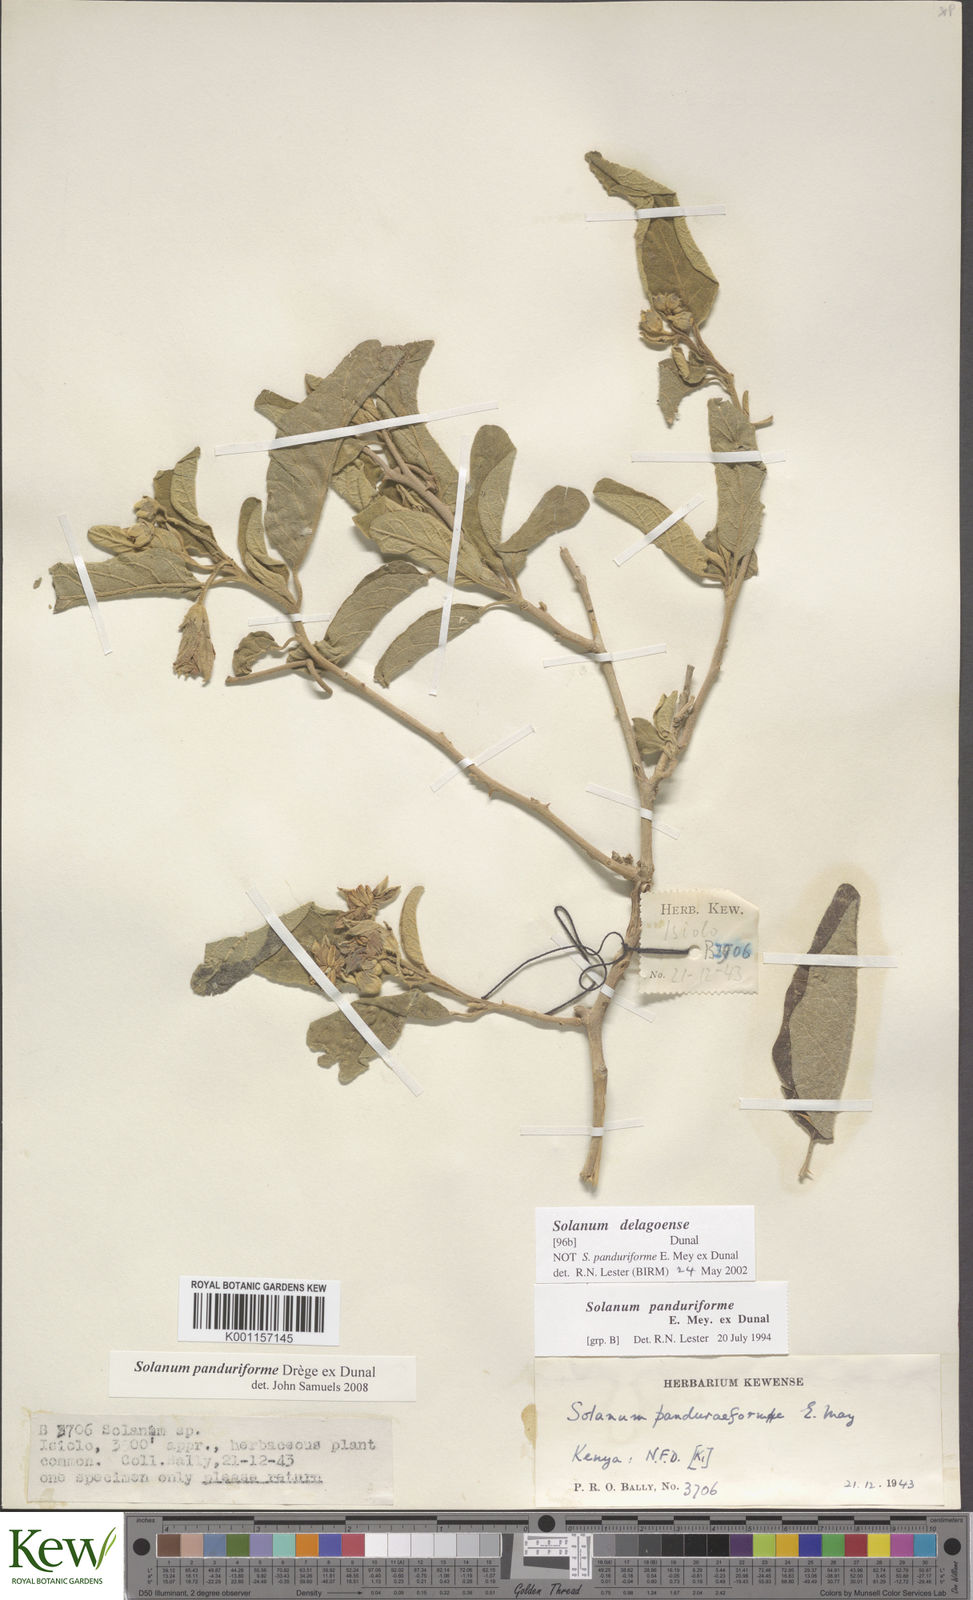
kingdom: Plantae
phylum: Tracheophyta
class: Magnoliopsida
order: Solanales
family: Solanaceae
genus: Solanum
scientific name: Solanum campylacanthum
